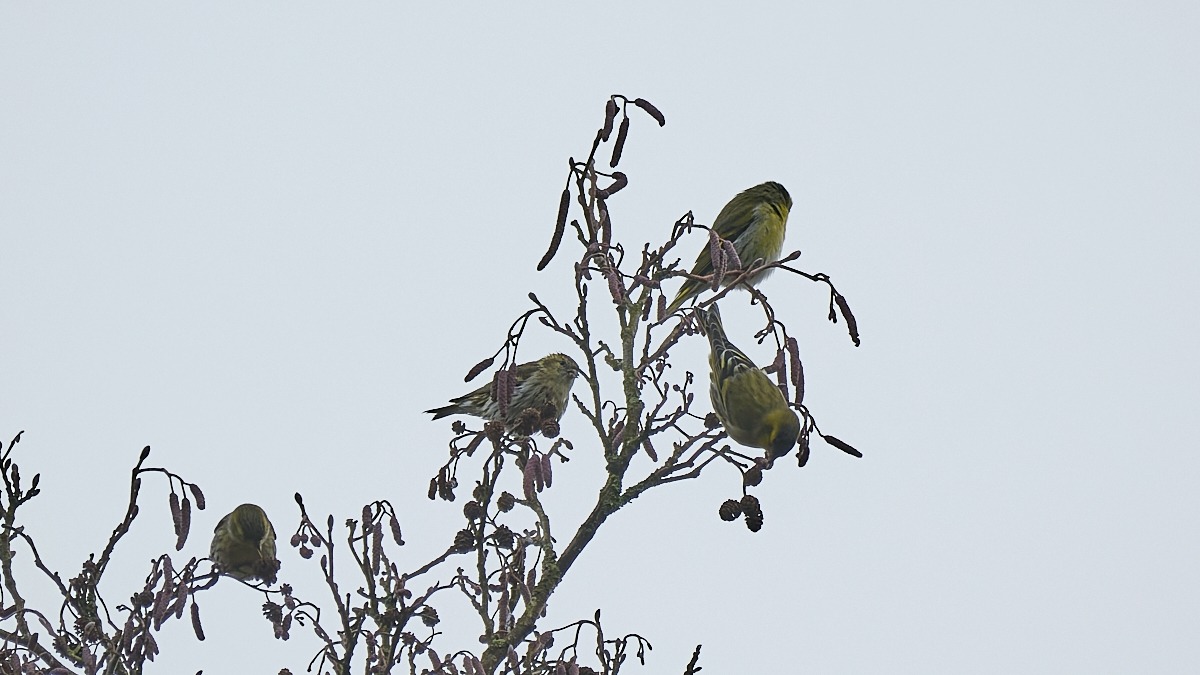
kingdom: Animalia
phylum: Chordata
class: Aves
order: Passeriformes
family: Fringillidae
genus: Spinus
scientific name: Spinus spinus
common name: Grønsisken
